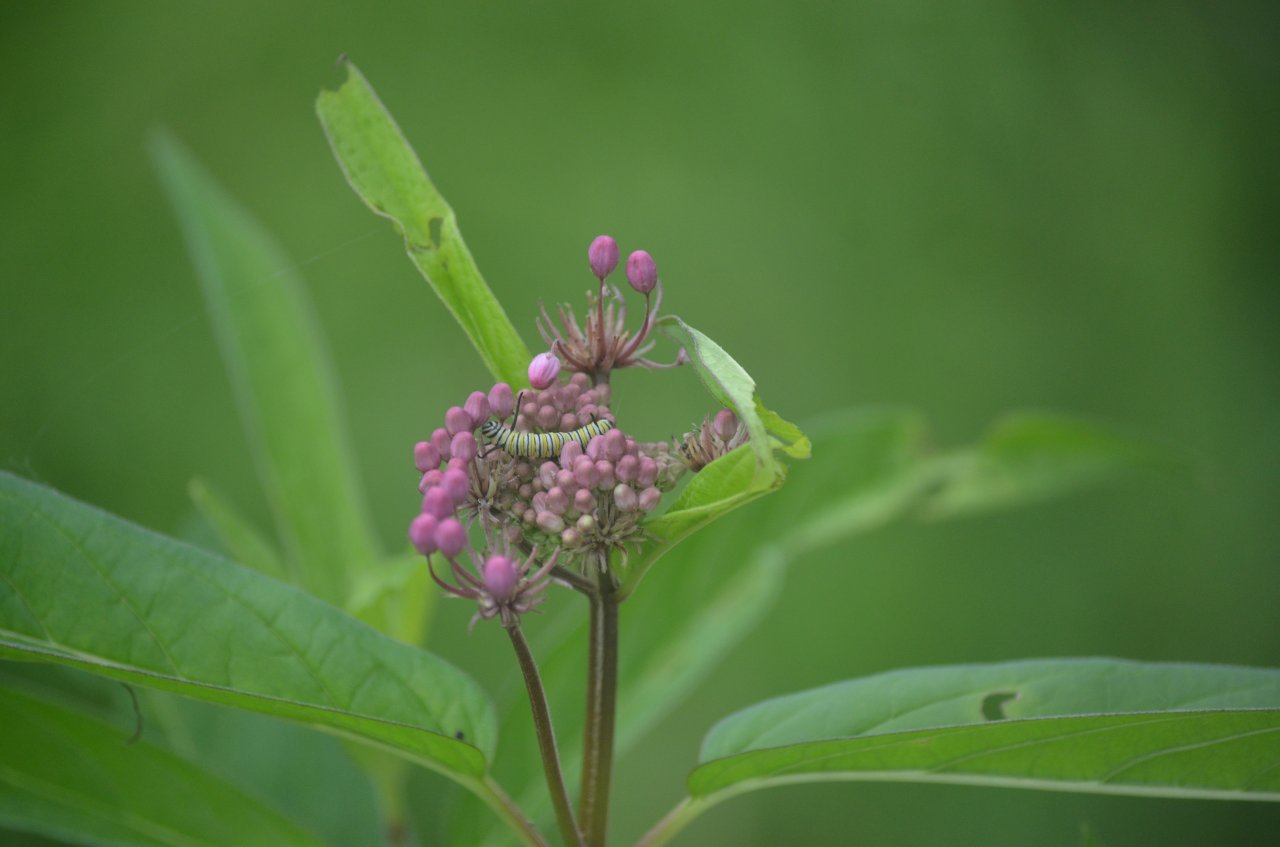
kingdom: Animalia
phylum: Arthropoda
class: Insecta
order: Lepidoptera
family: Nymphalidae
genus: Danaus
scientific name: Danaus plexippus
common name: Monarch
